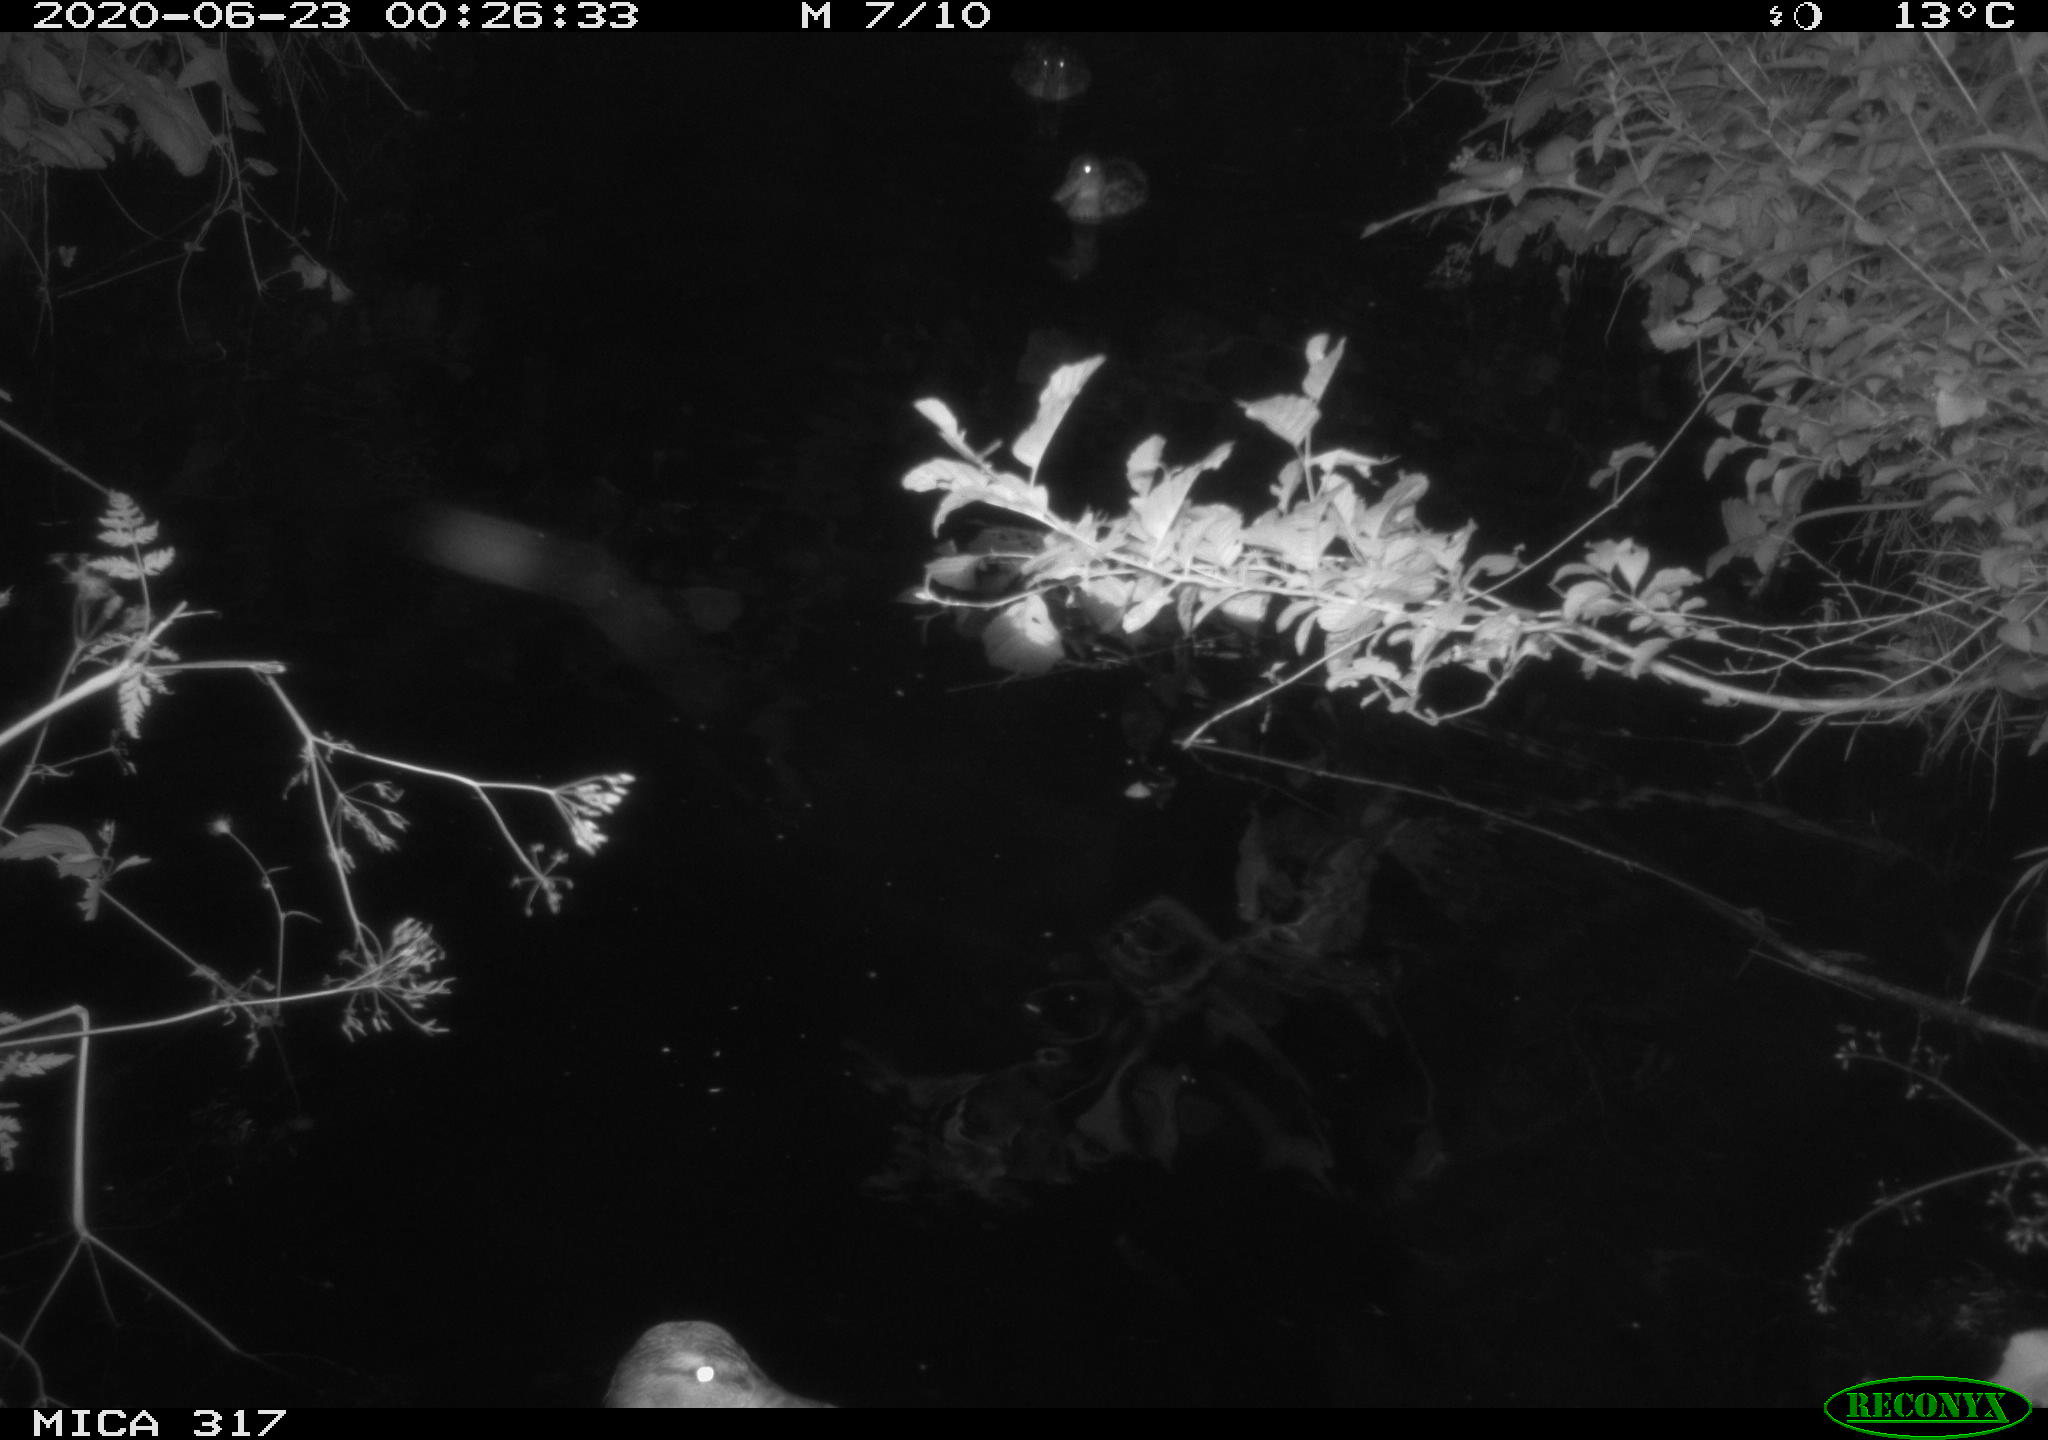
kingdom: Animalia
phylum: Chordata
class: Aves
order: Anseriformes
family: Anatidae
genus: Anas
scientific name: Anas platyrhynchos
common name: Mallard
